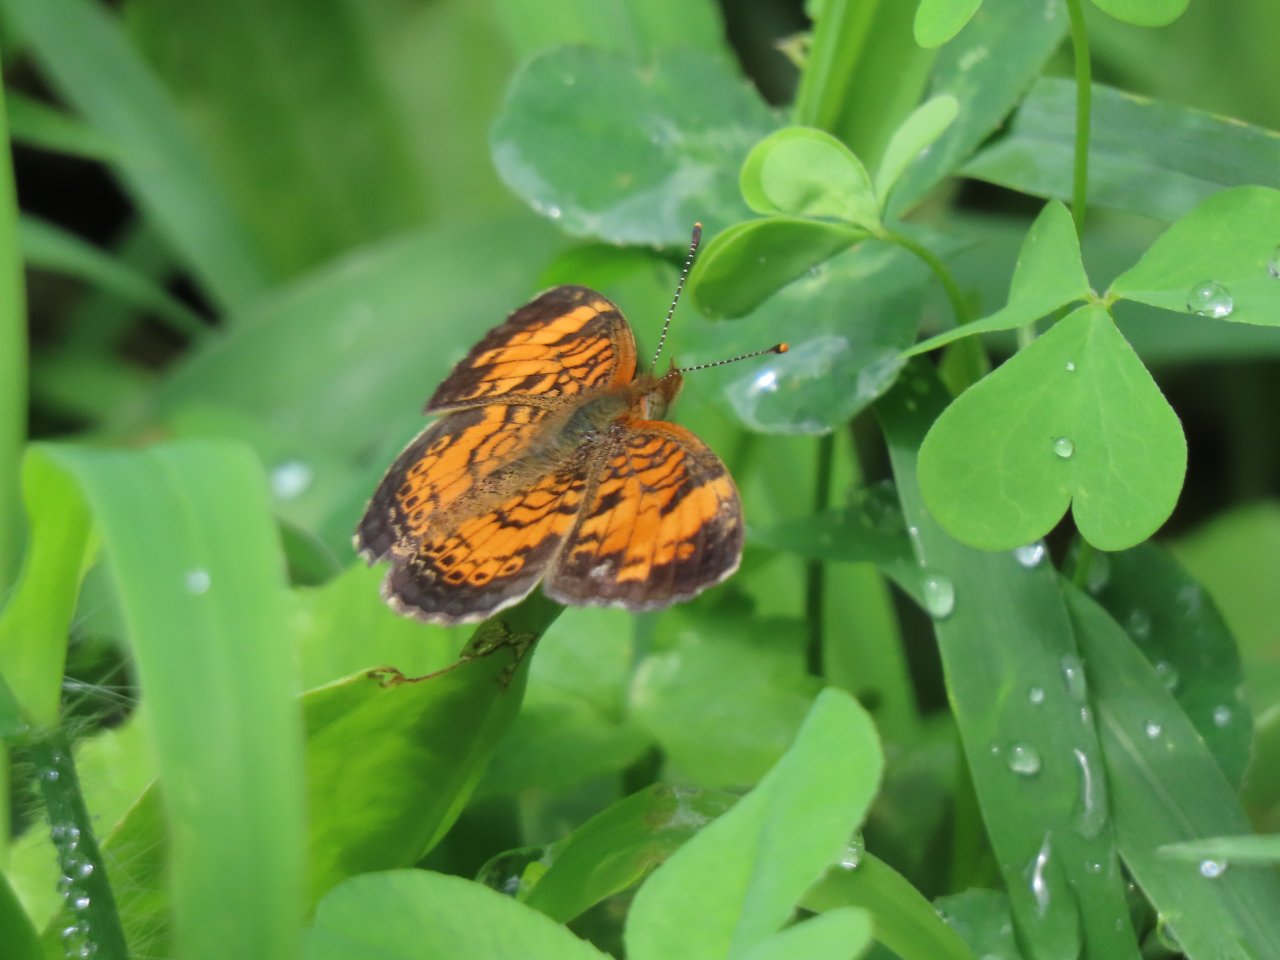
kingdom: Animalia
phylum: Arthropoda
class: Insecta
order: Lepidoptera
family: Nymphalidae
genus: Phyciodes
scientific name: Phyciodes tharos
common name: Pearl Crescent
